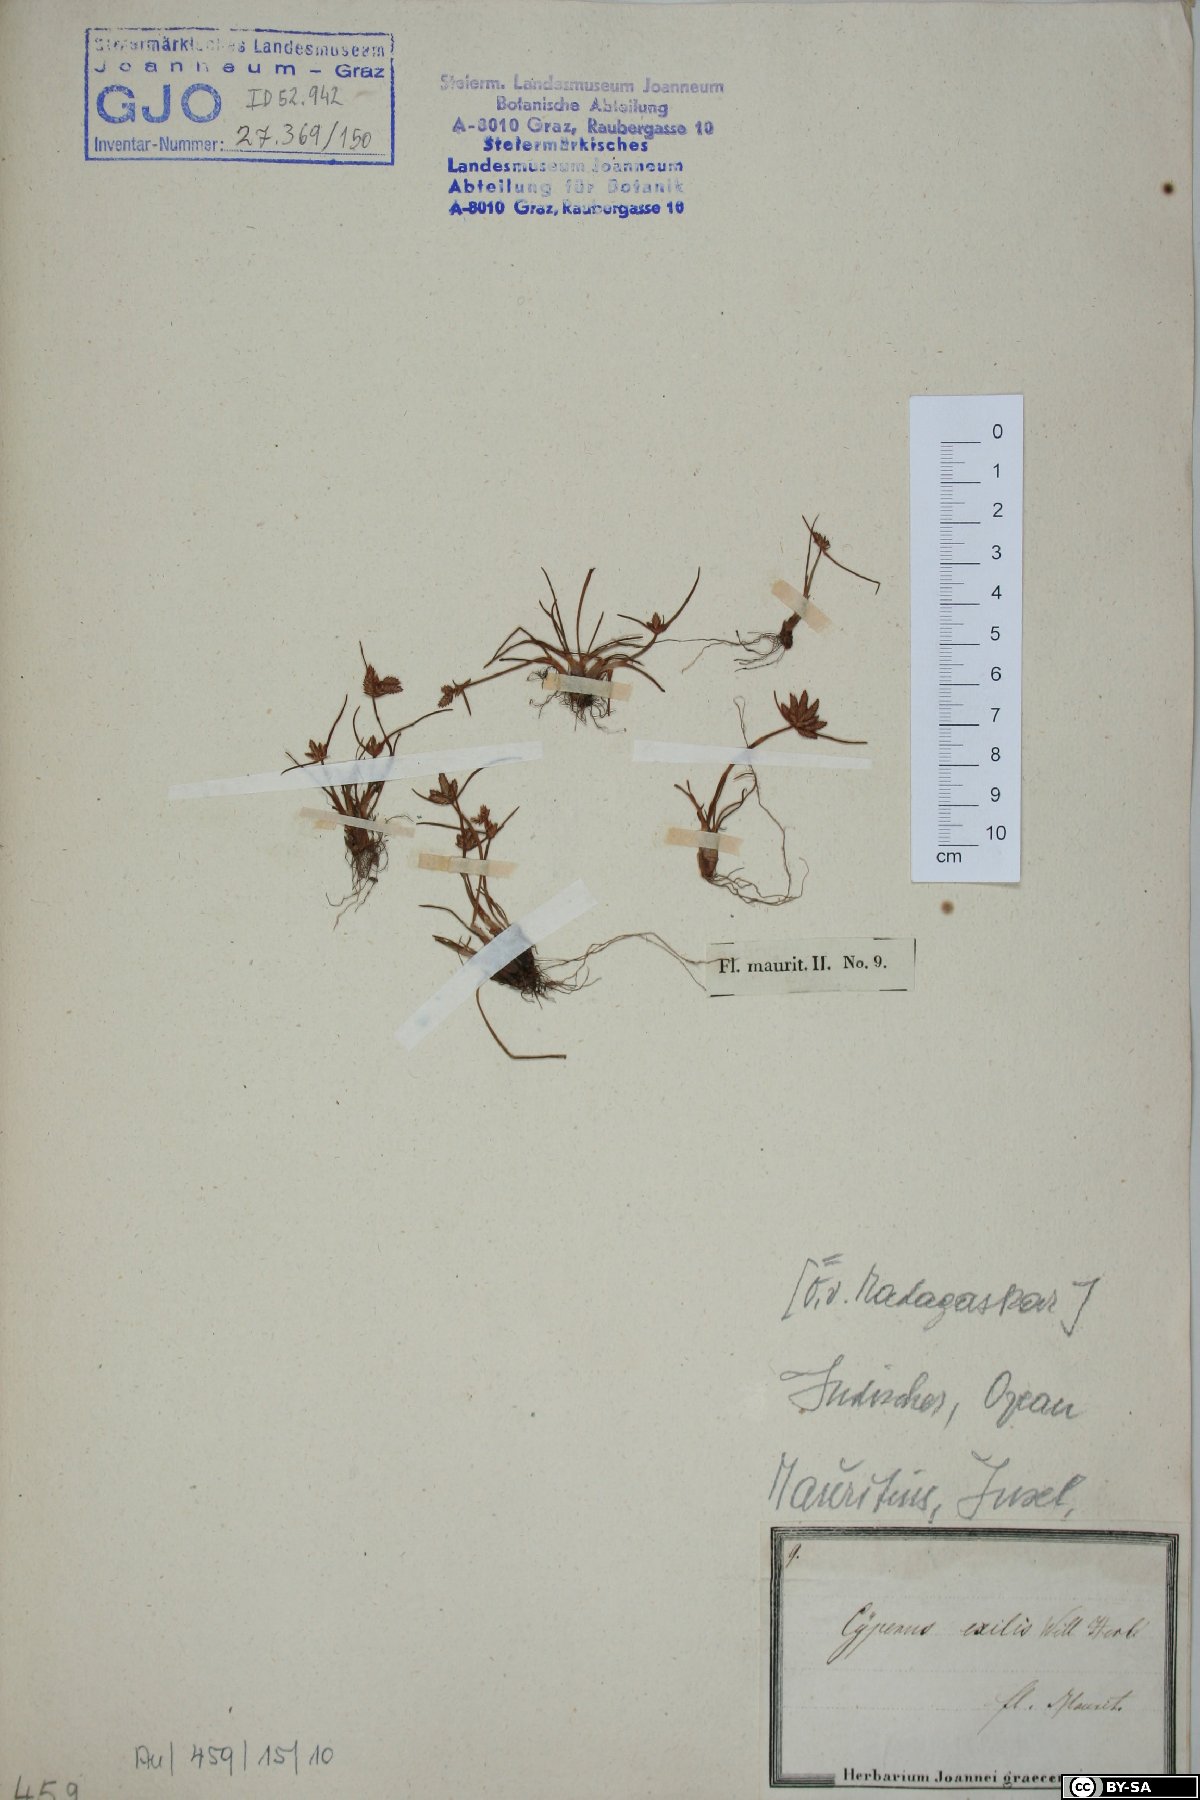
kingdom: Plantae
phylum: Tracheophyta
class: Liliopsida
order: Poales
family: Cyperaceae
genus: Cyperus
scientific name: Cyperus rubicundus
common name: Coco-grass
